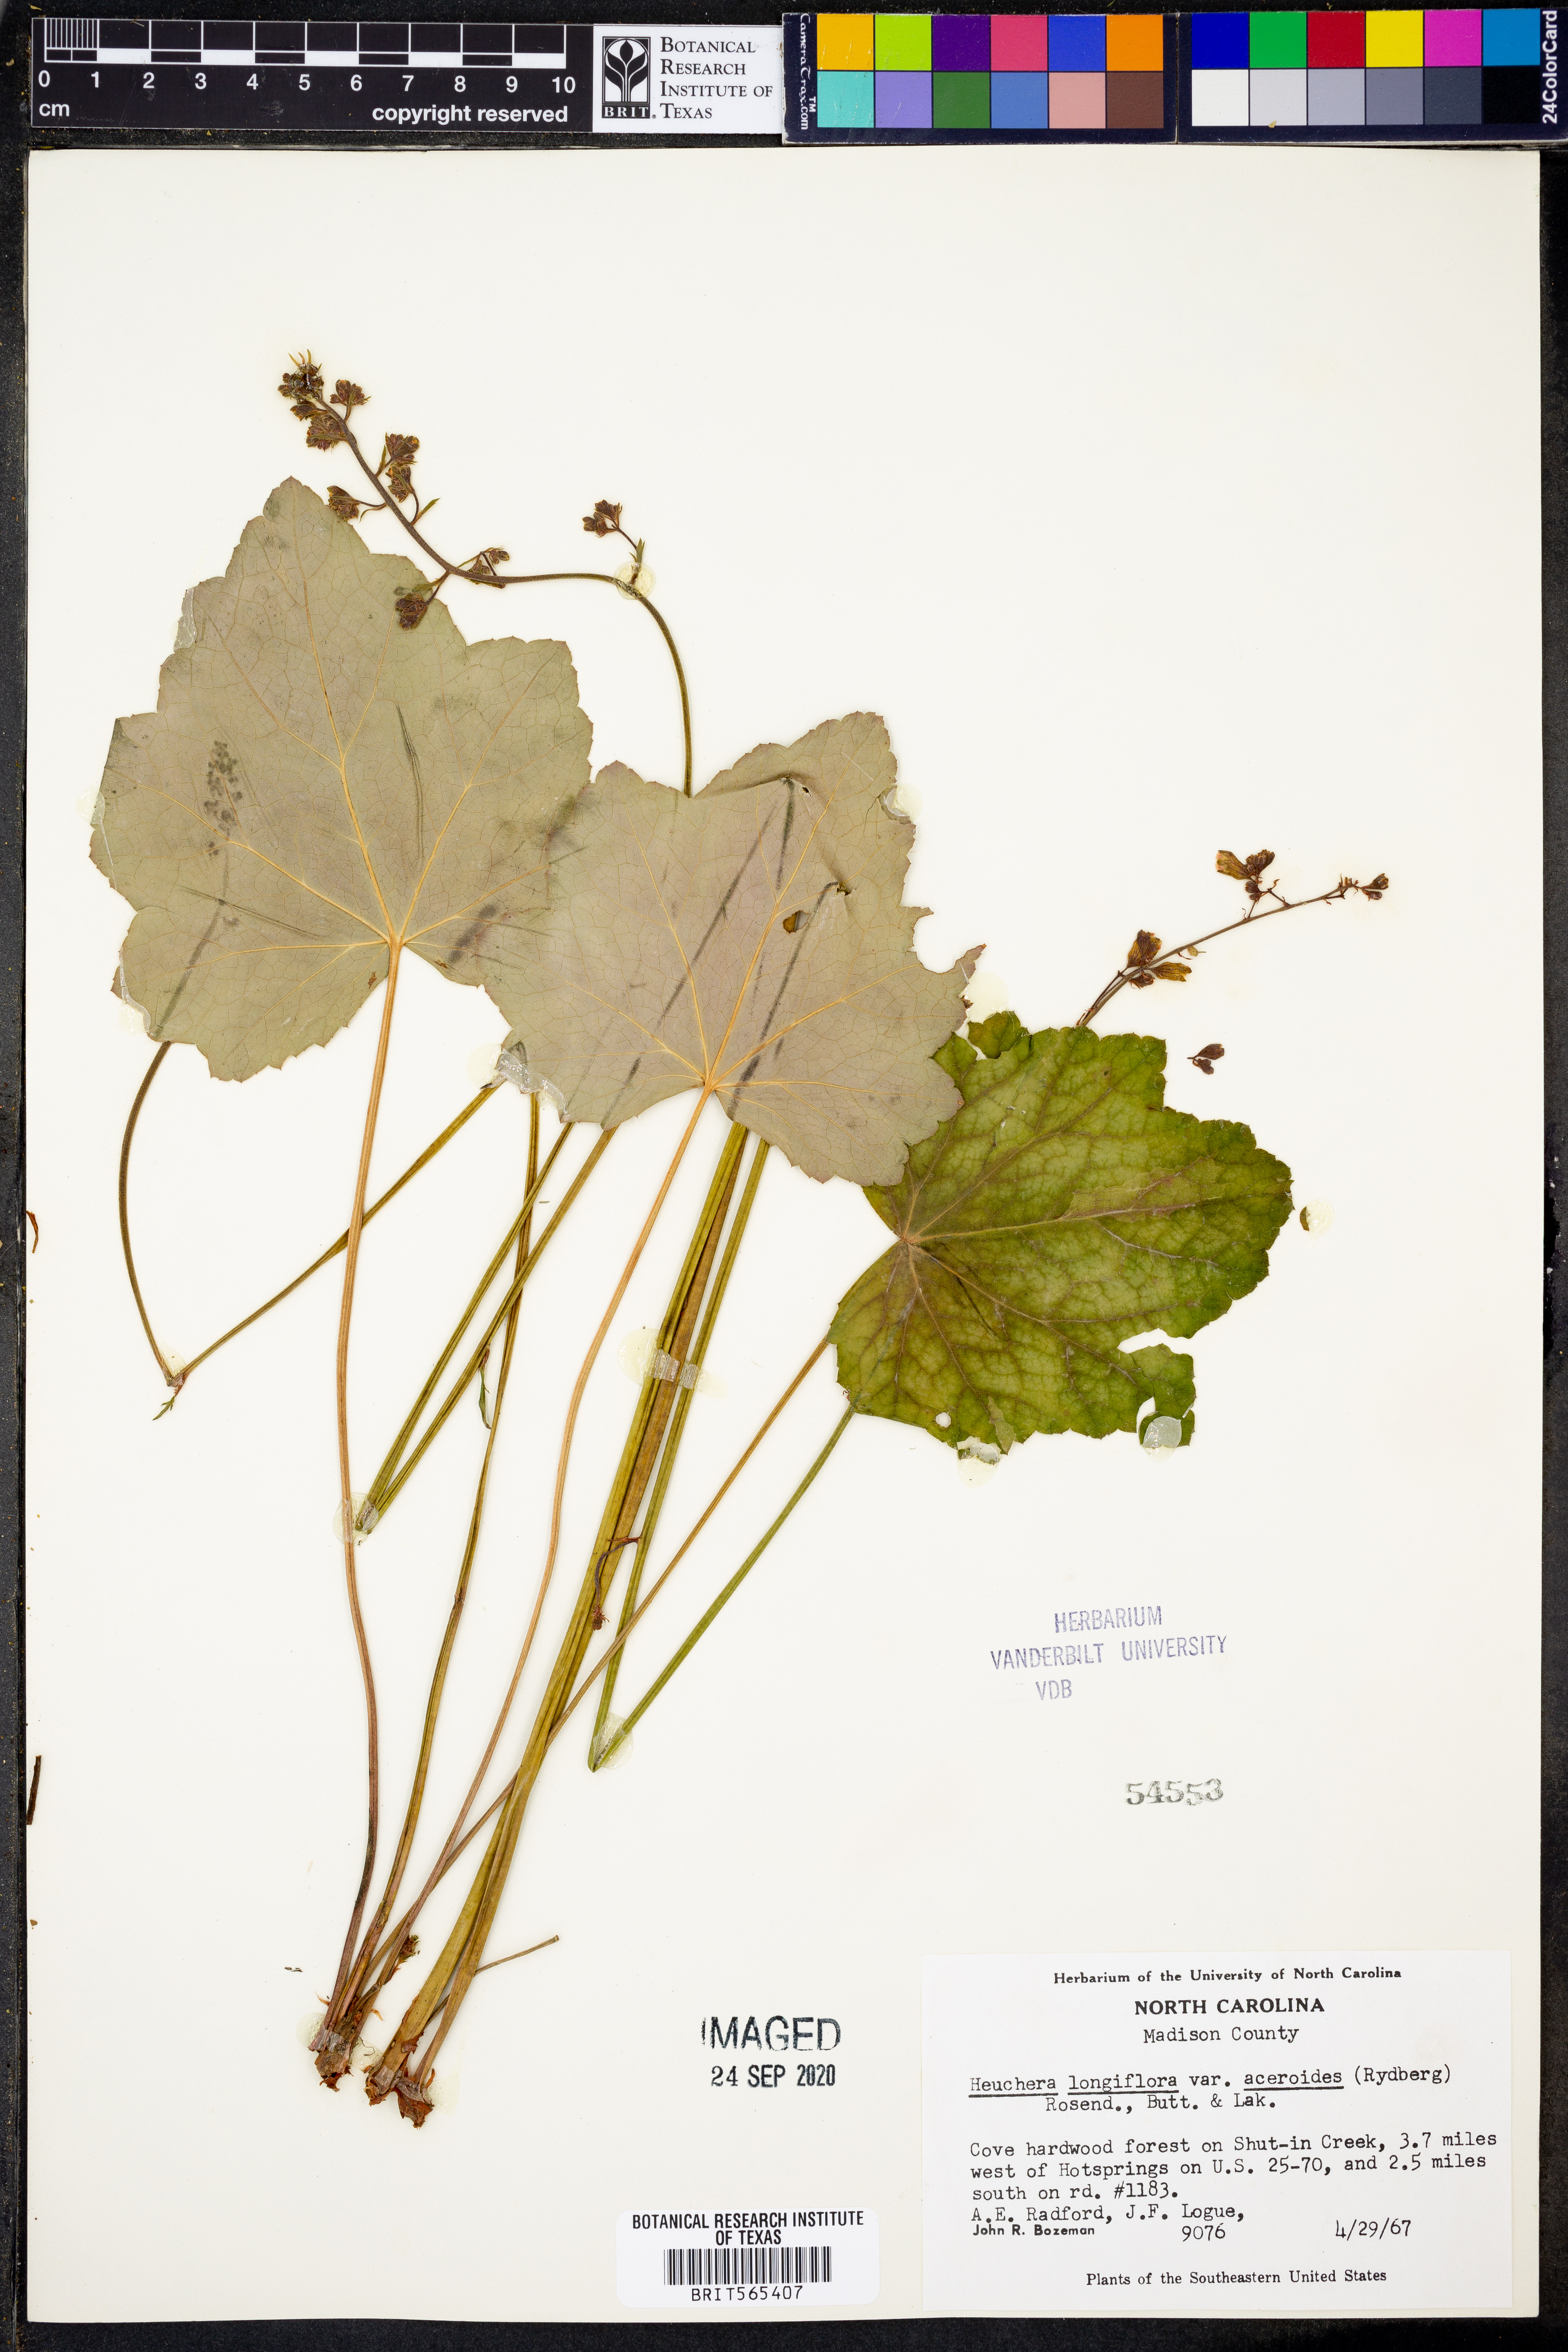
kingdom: Plantae
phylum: Tracheophyta
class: Magnoliopsida
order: Saxifragales
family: Saxifragaceae
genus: Heuchera
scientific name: Heuchera longiflora
